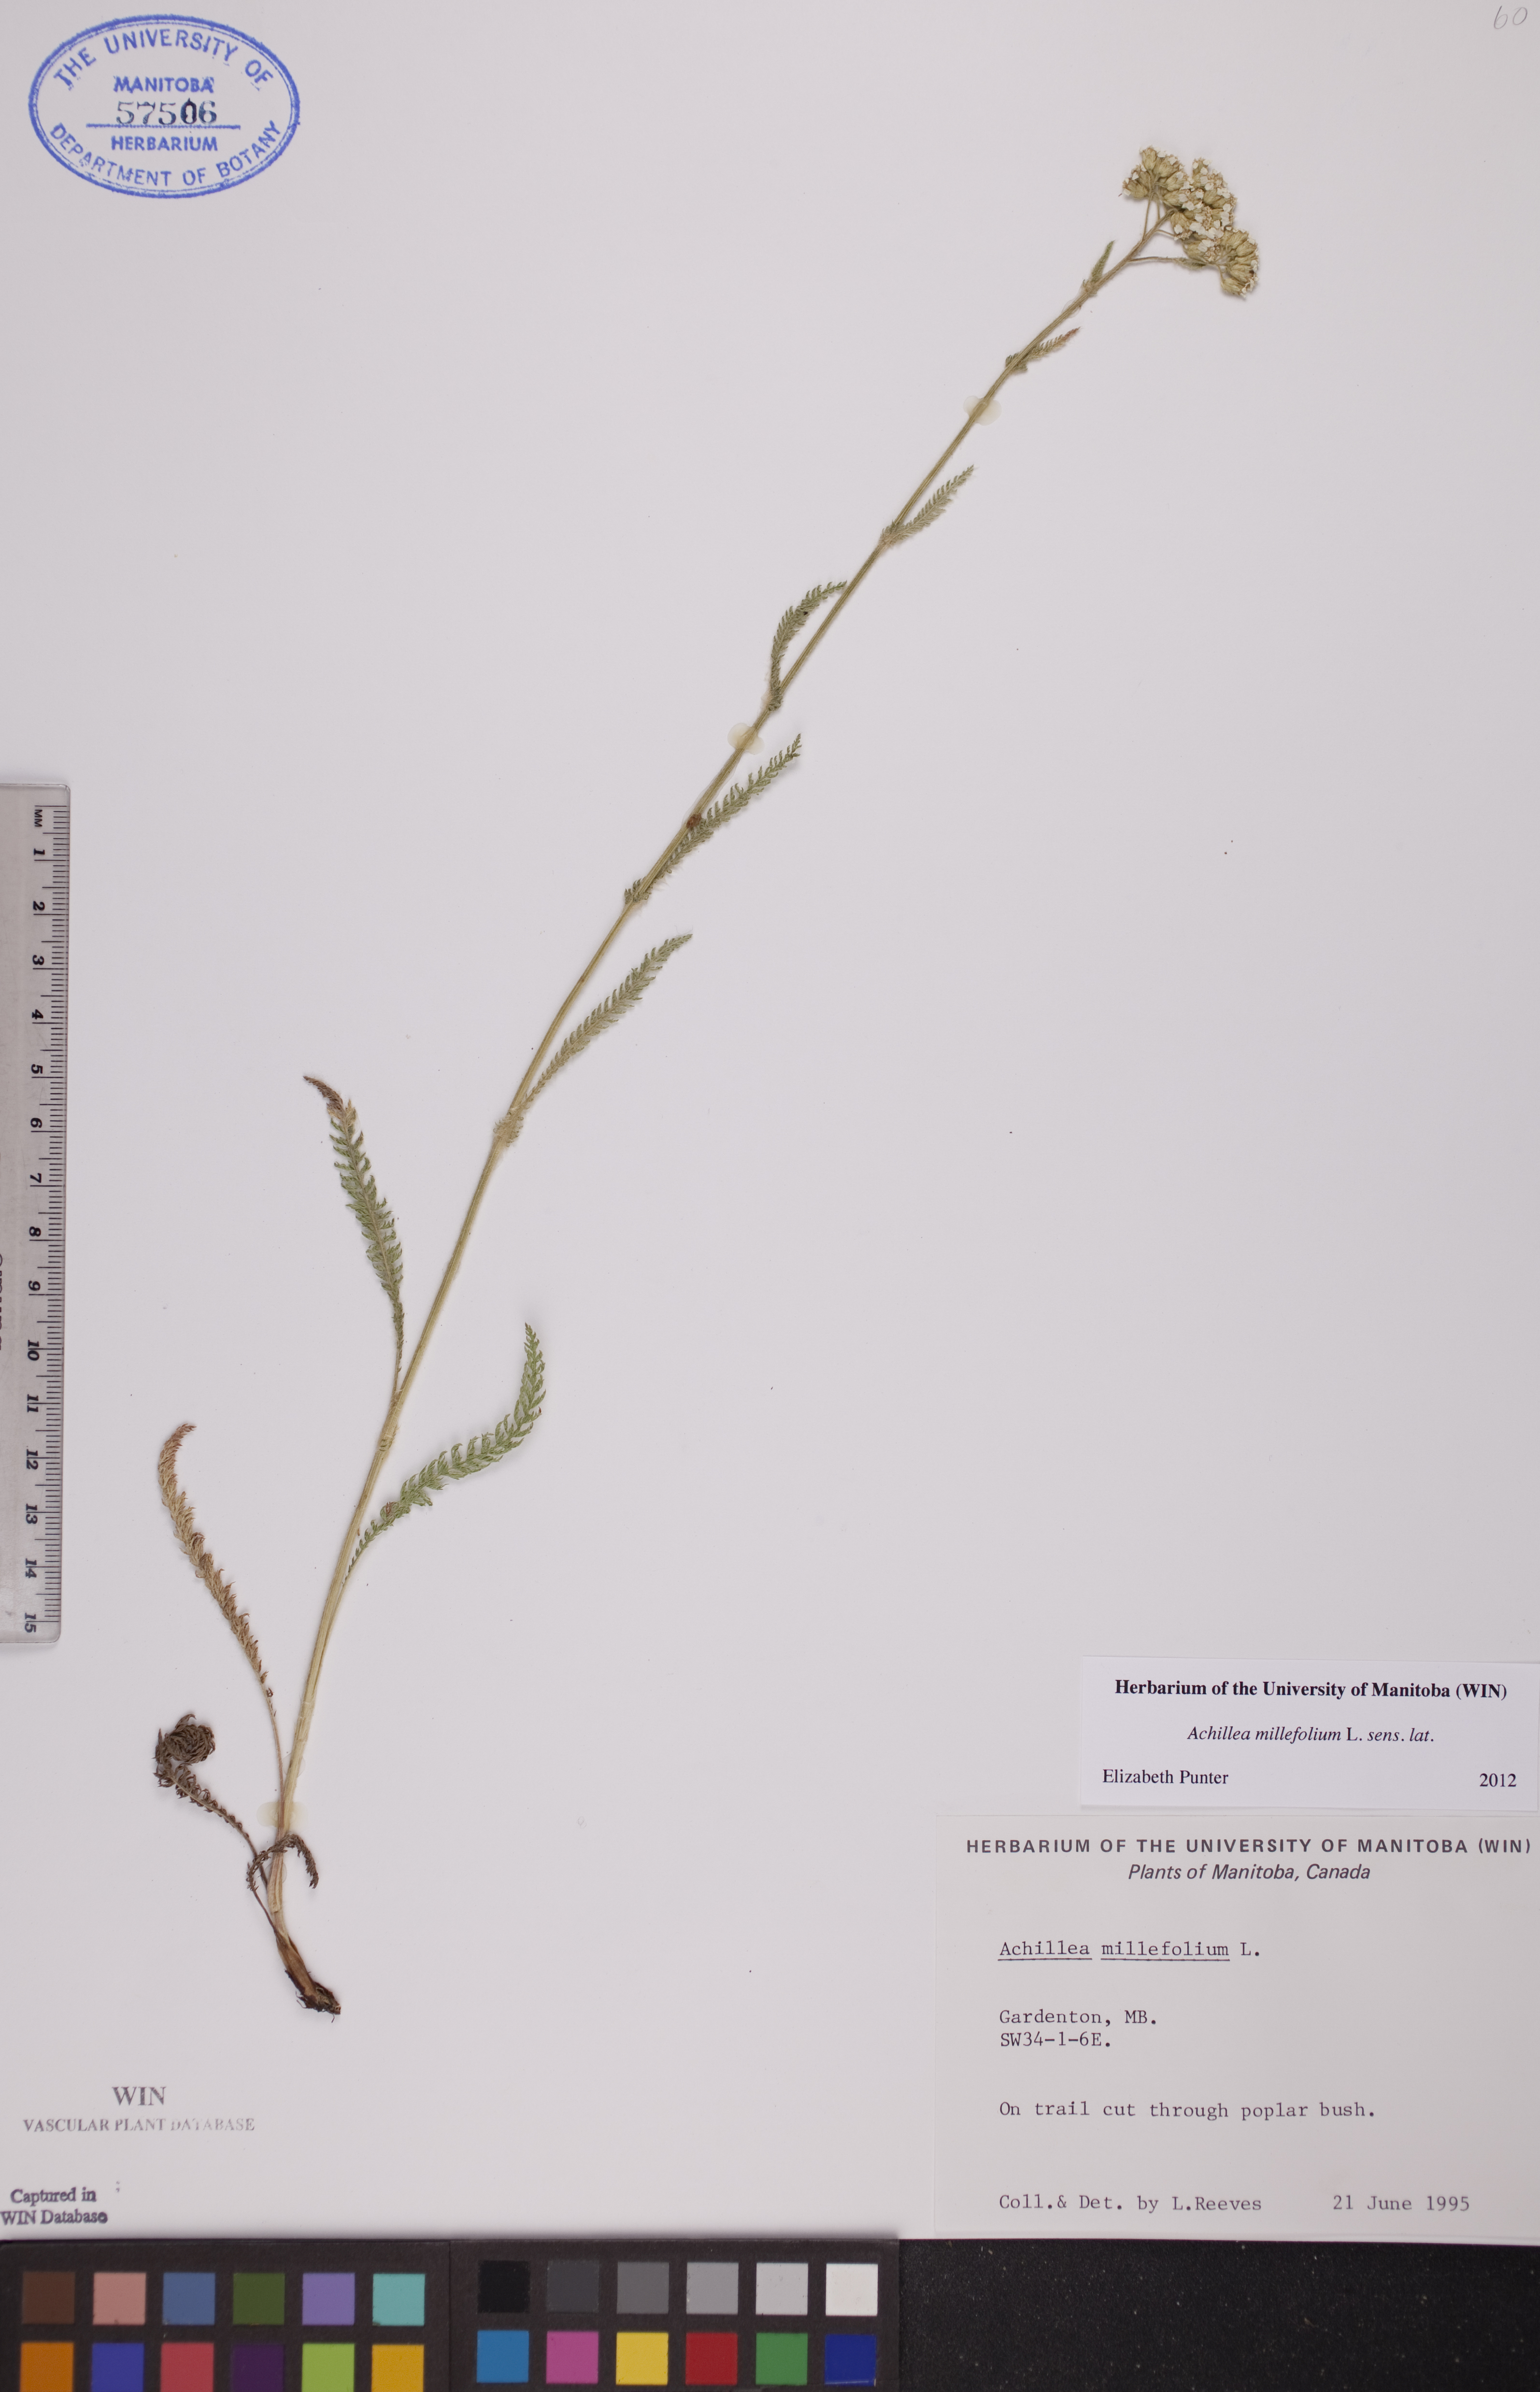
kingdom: Plantae
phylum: Tracheophyta
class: Magnoliopsida
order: Asterales
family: Asteraceae
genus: Achillea
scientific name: Achillea millefolium
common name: Yarrow
